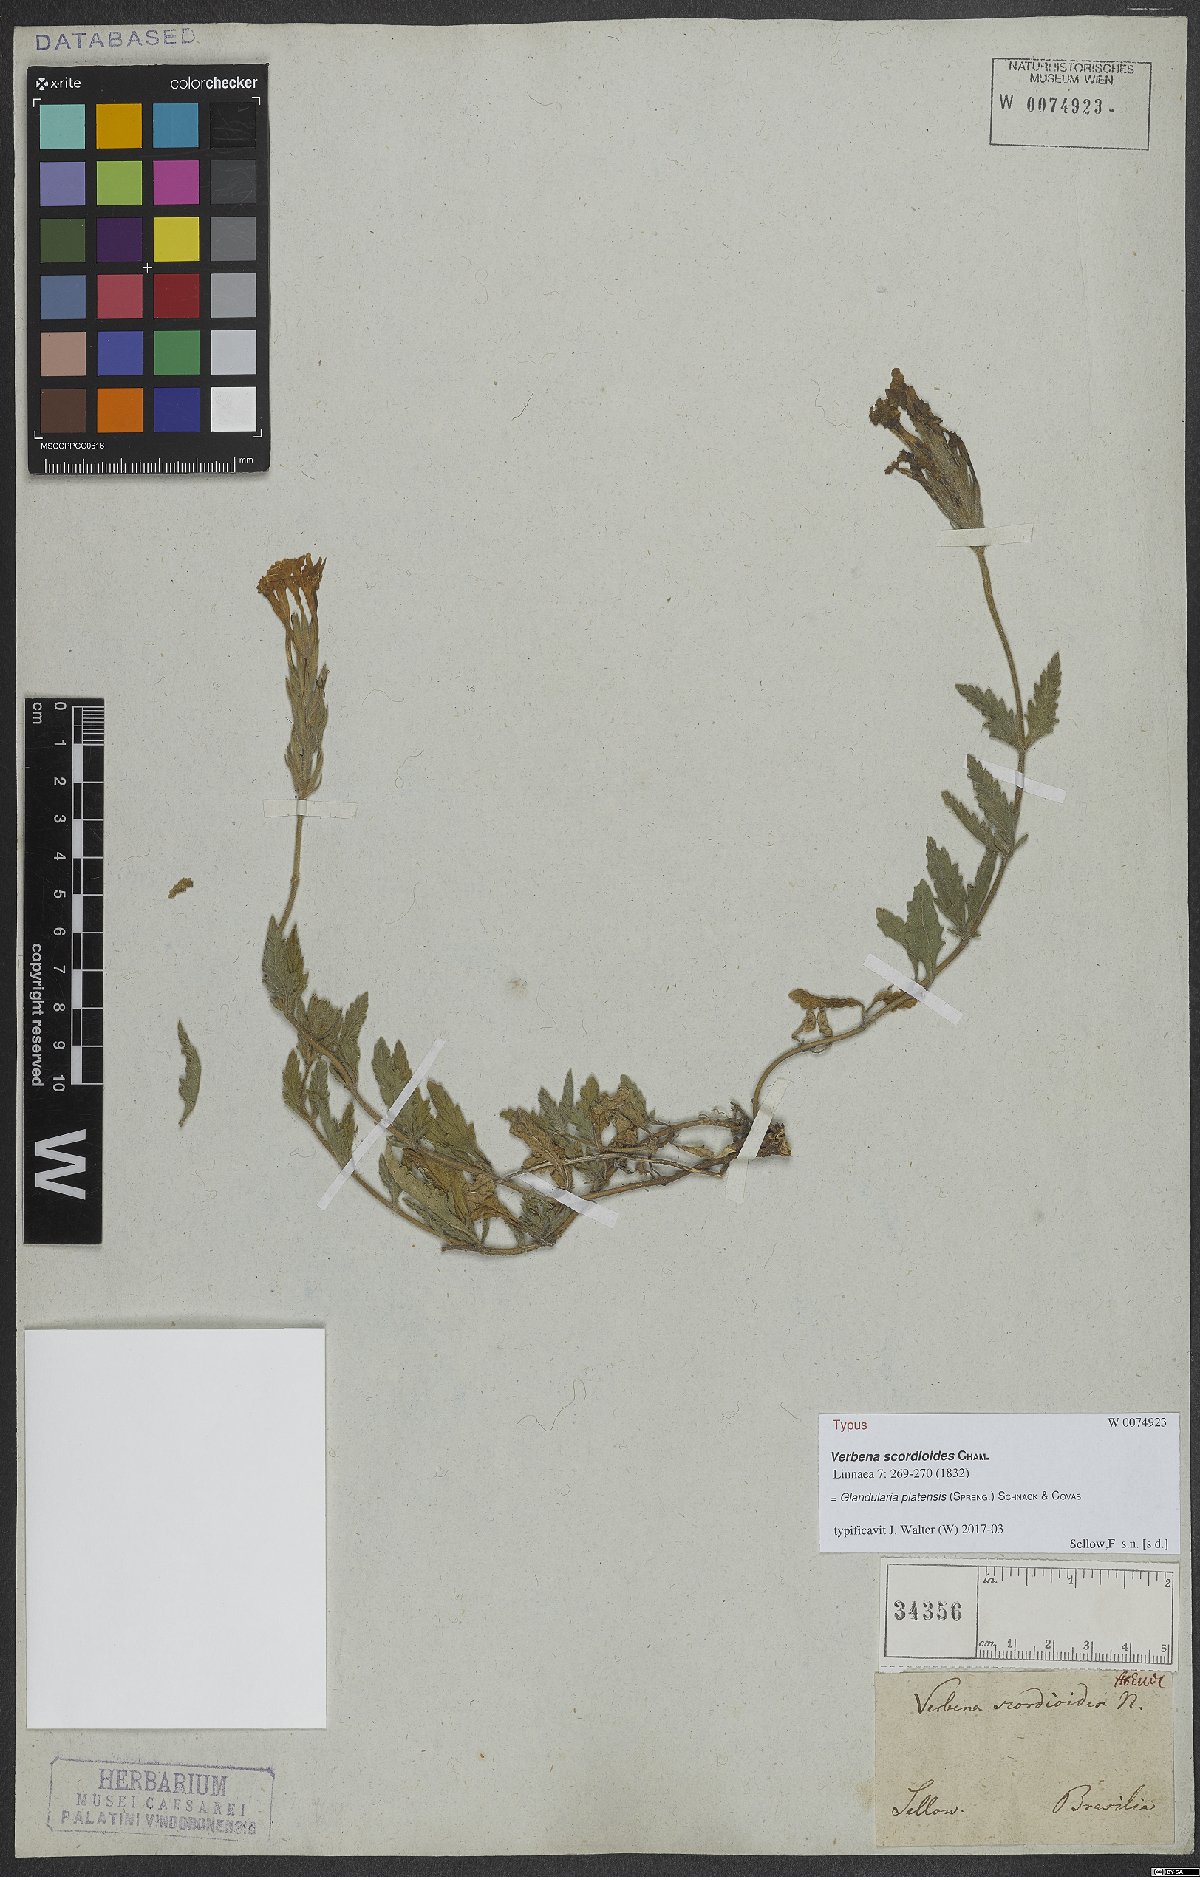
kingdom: Plantae
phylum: Tracheophyta
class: Magnoliopsida
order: Lamiales
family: Verbenaceae
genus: Verbena
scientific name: Verbena platensis
